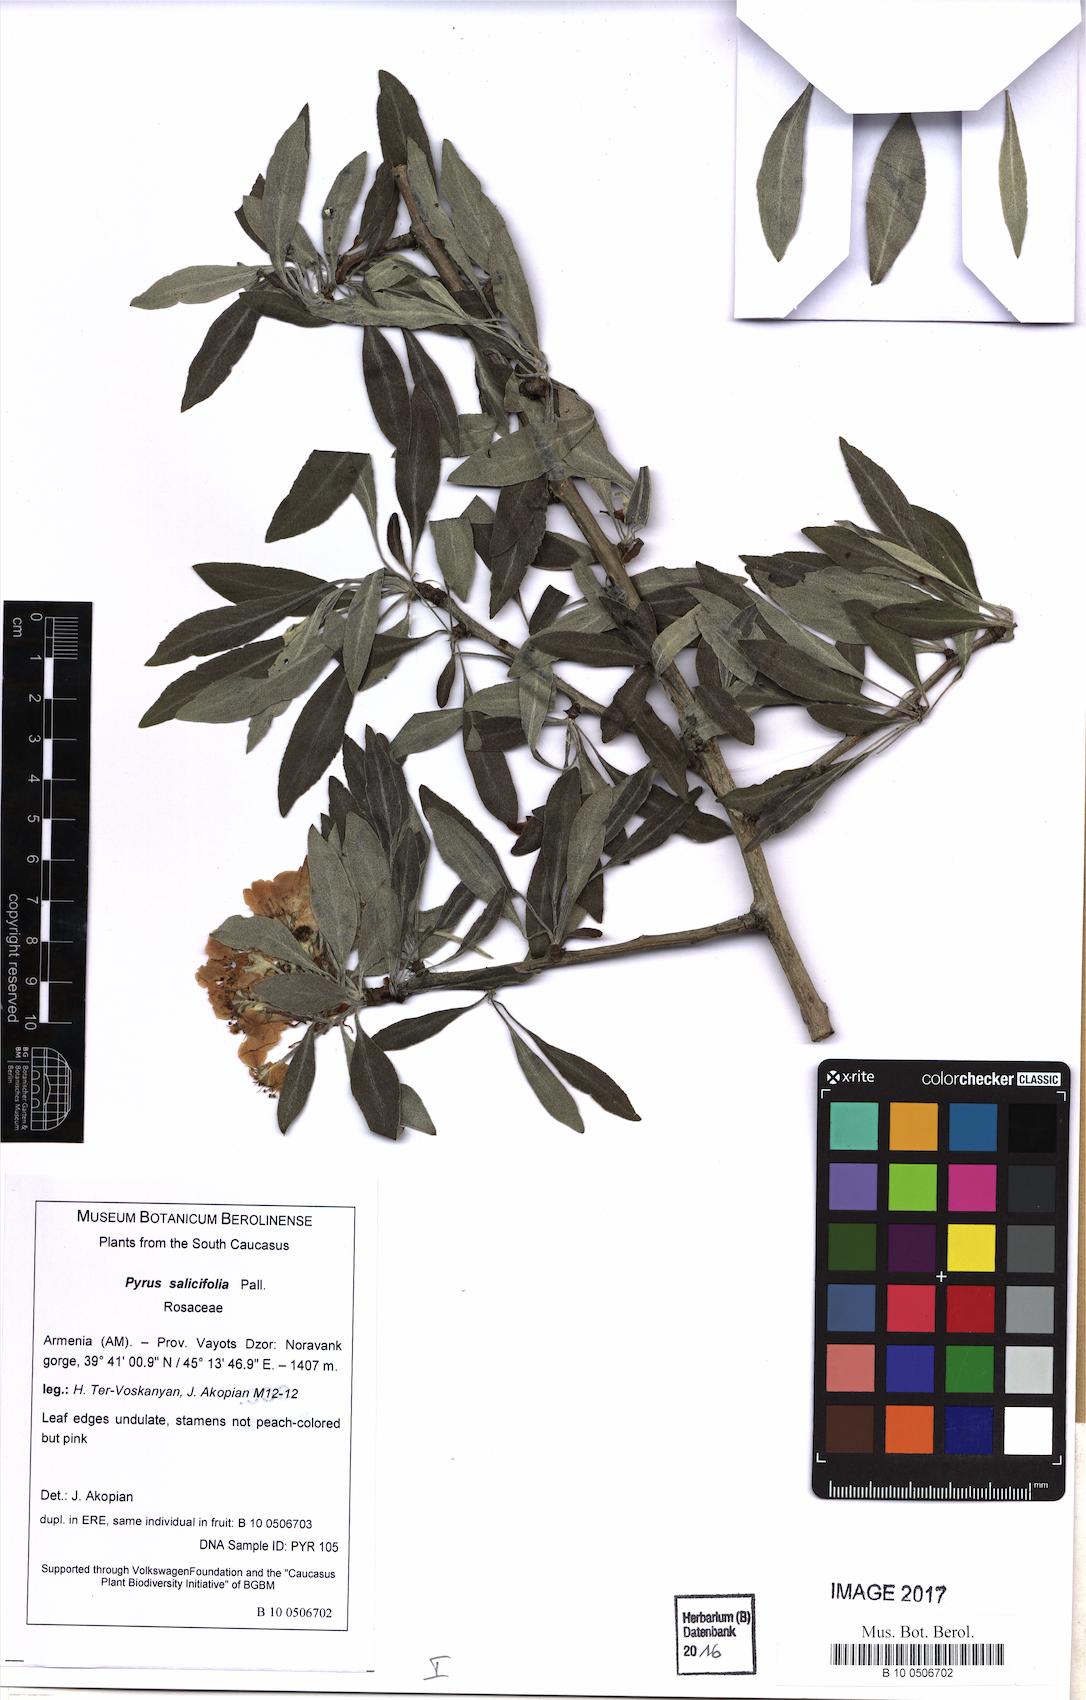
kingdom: Plantae
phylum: Tracheophyta
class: Magnoliopsida
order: Rosales
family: Rosaceae
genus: Pyrus
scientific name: Pyrus salicifolia
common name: Willow-leaved pear
